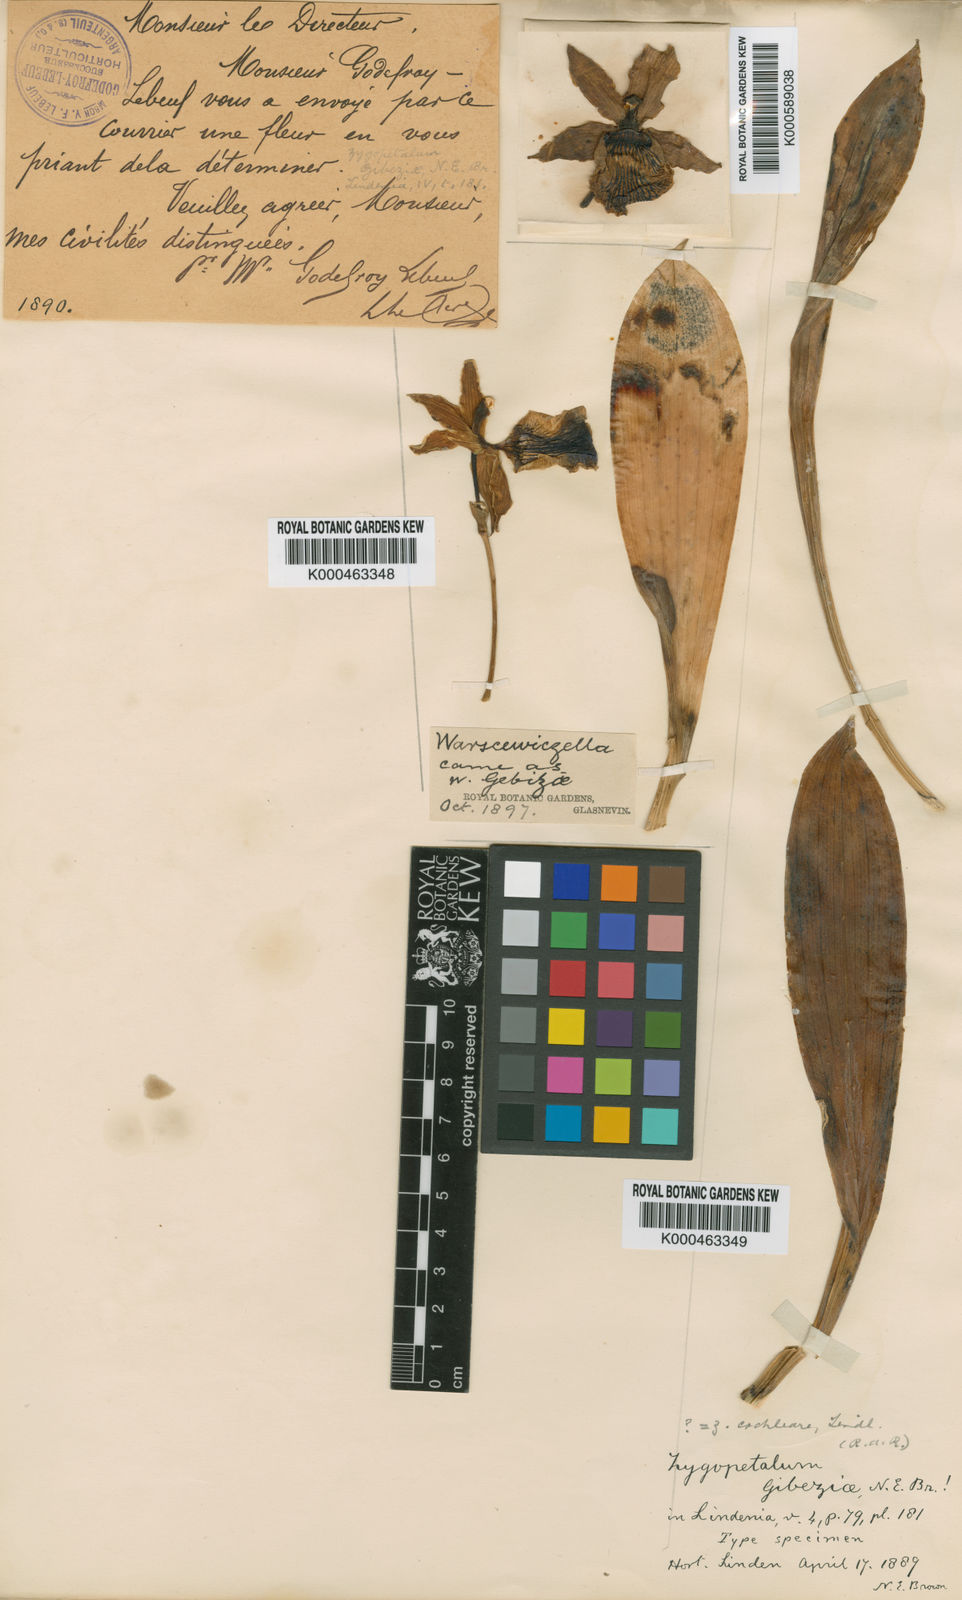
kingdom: Plantae
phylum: Tracheophyta
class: Liliopsida
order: Asparagales
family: Orchidaceae
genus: Cochleanthes
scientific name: Cochleanthes flabelliformis
